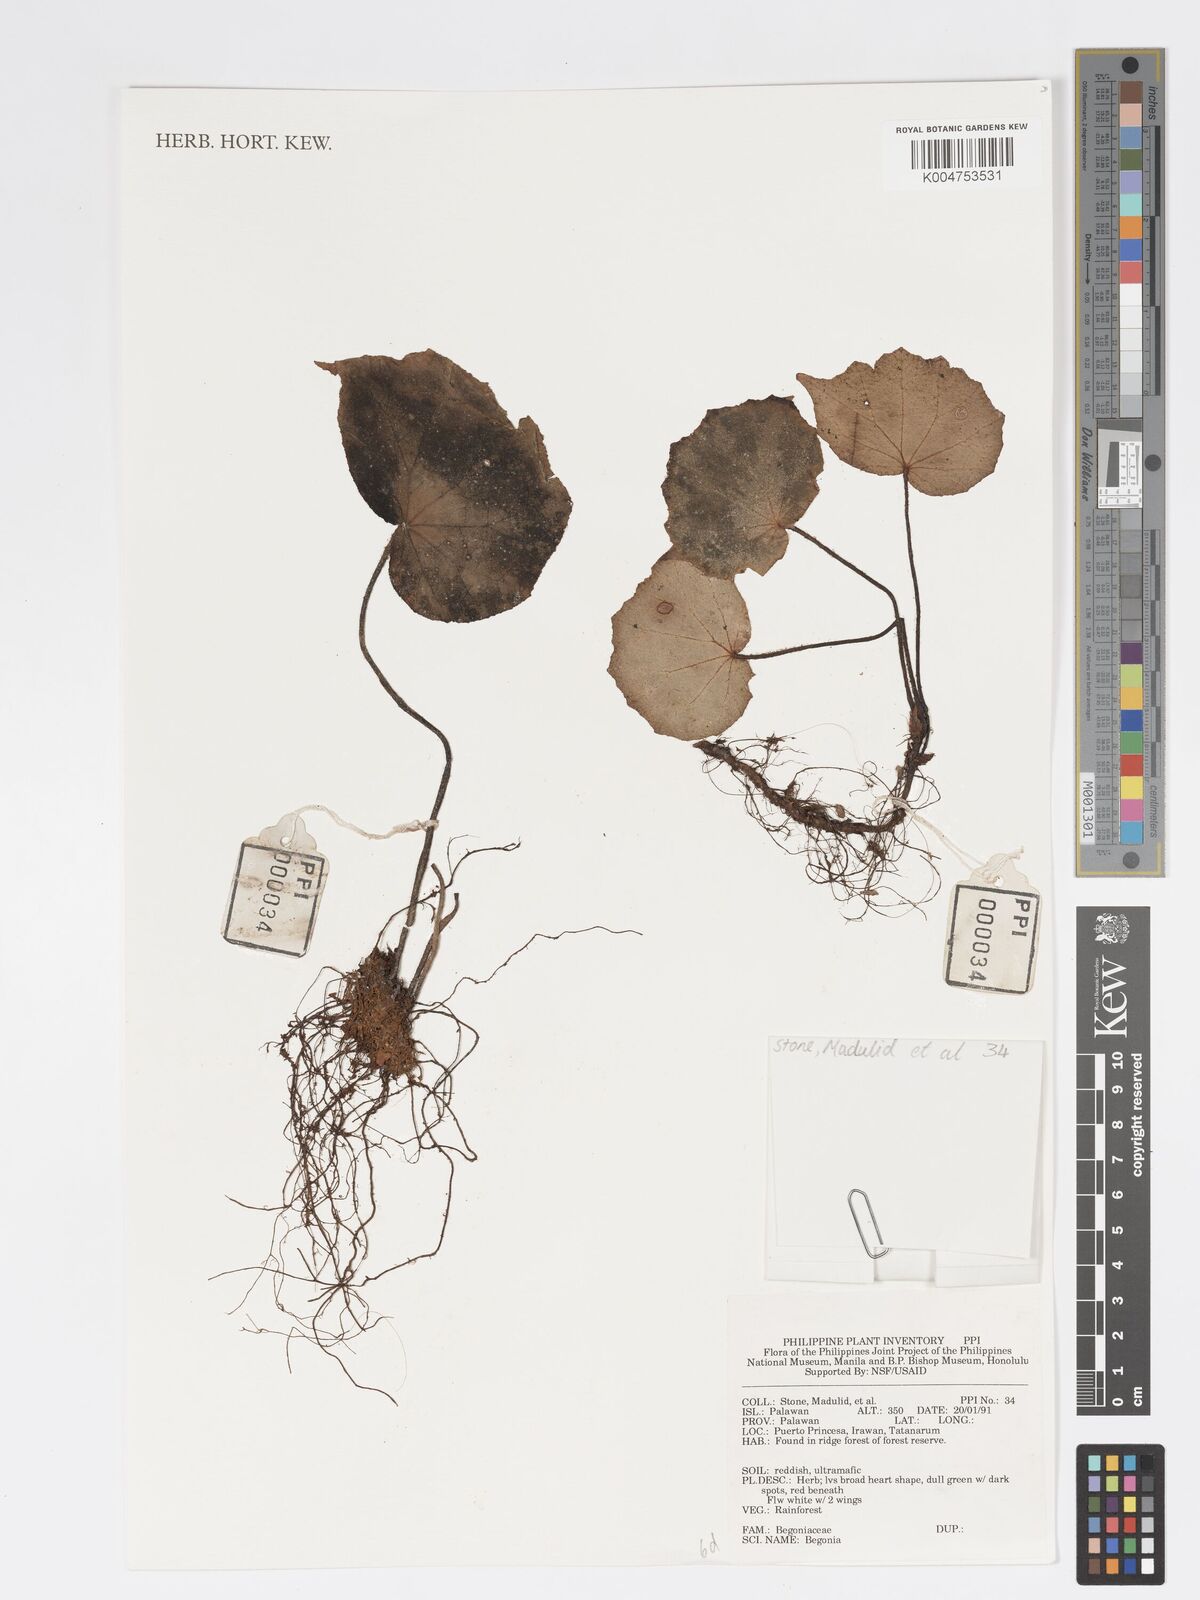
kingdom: Plantae
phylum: Tracheophyta
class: Magnoliopsida
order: Cucurbitales
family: Begoniaceae
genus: Begonia
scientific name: Begonia
